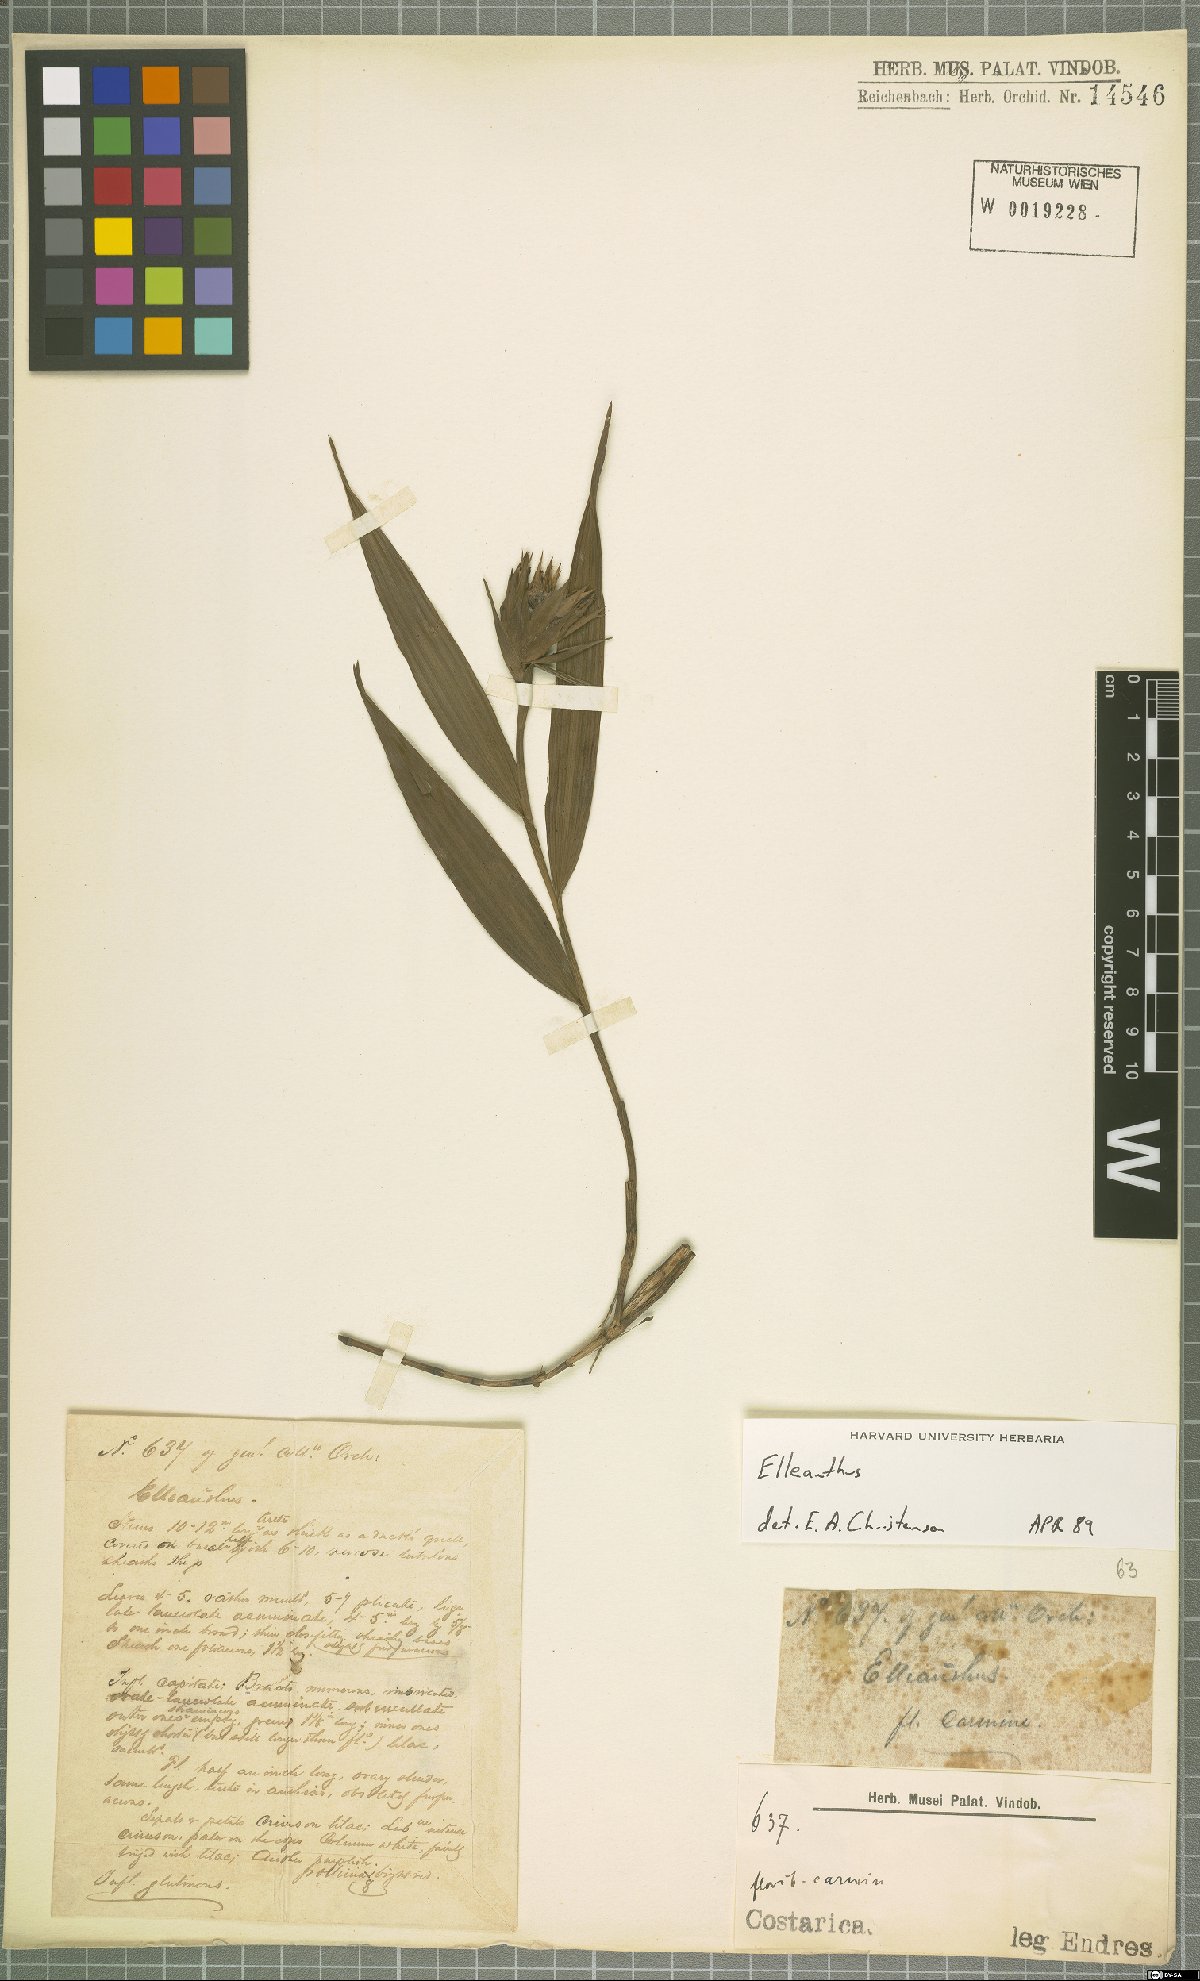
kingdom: Plantae
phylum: Tracheophyta
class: Liliopsida
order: Asparagales
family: Orchidaceae
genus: Elleanthus
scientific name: Elleanthus
